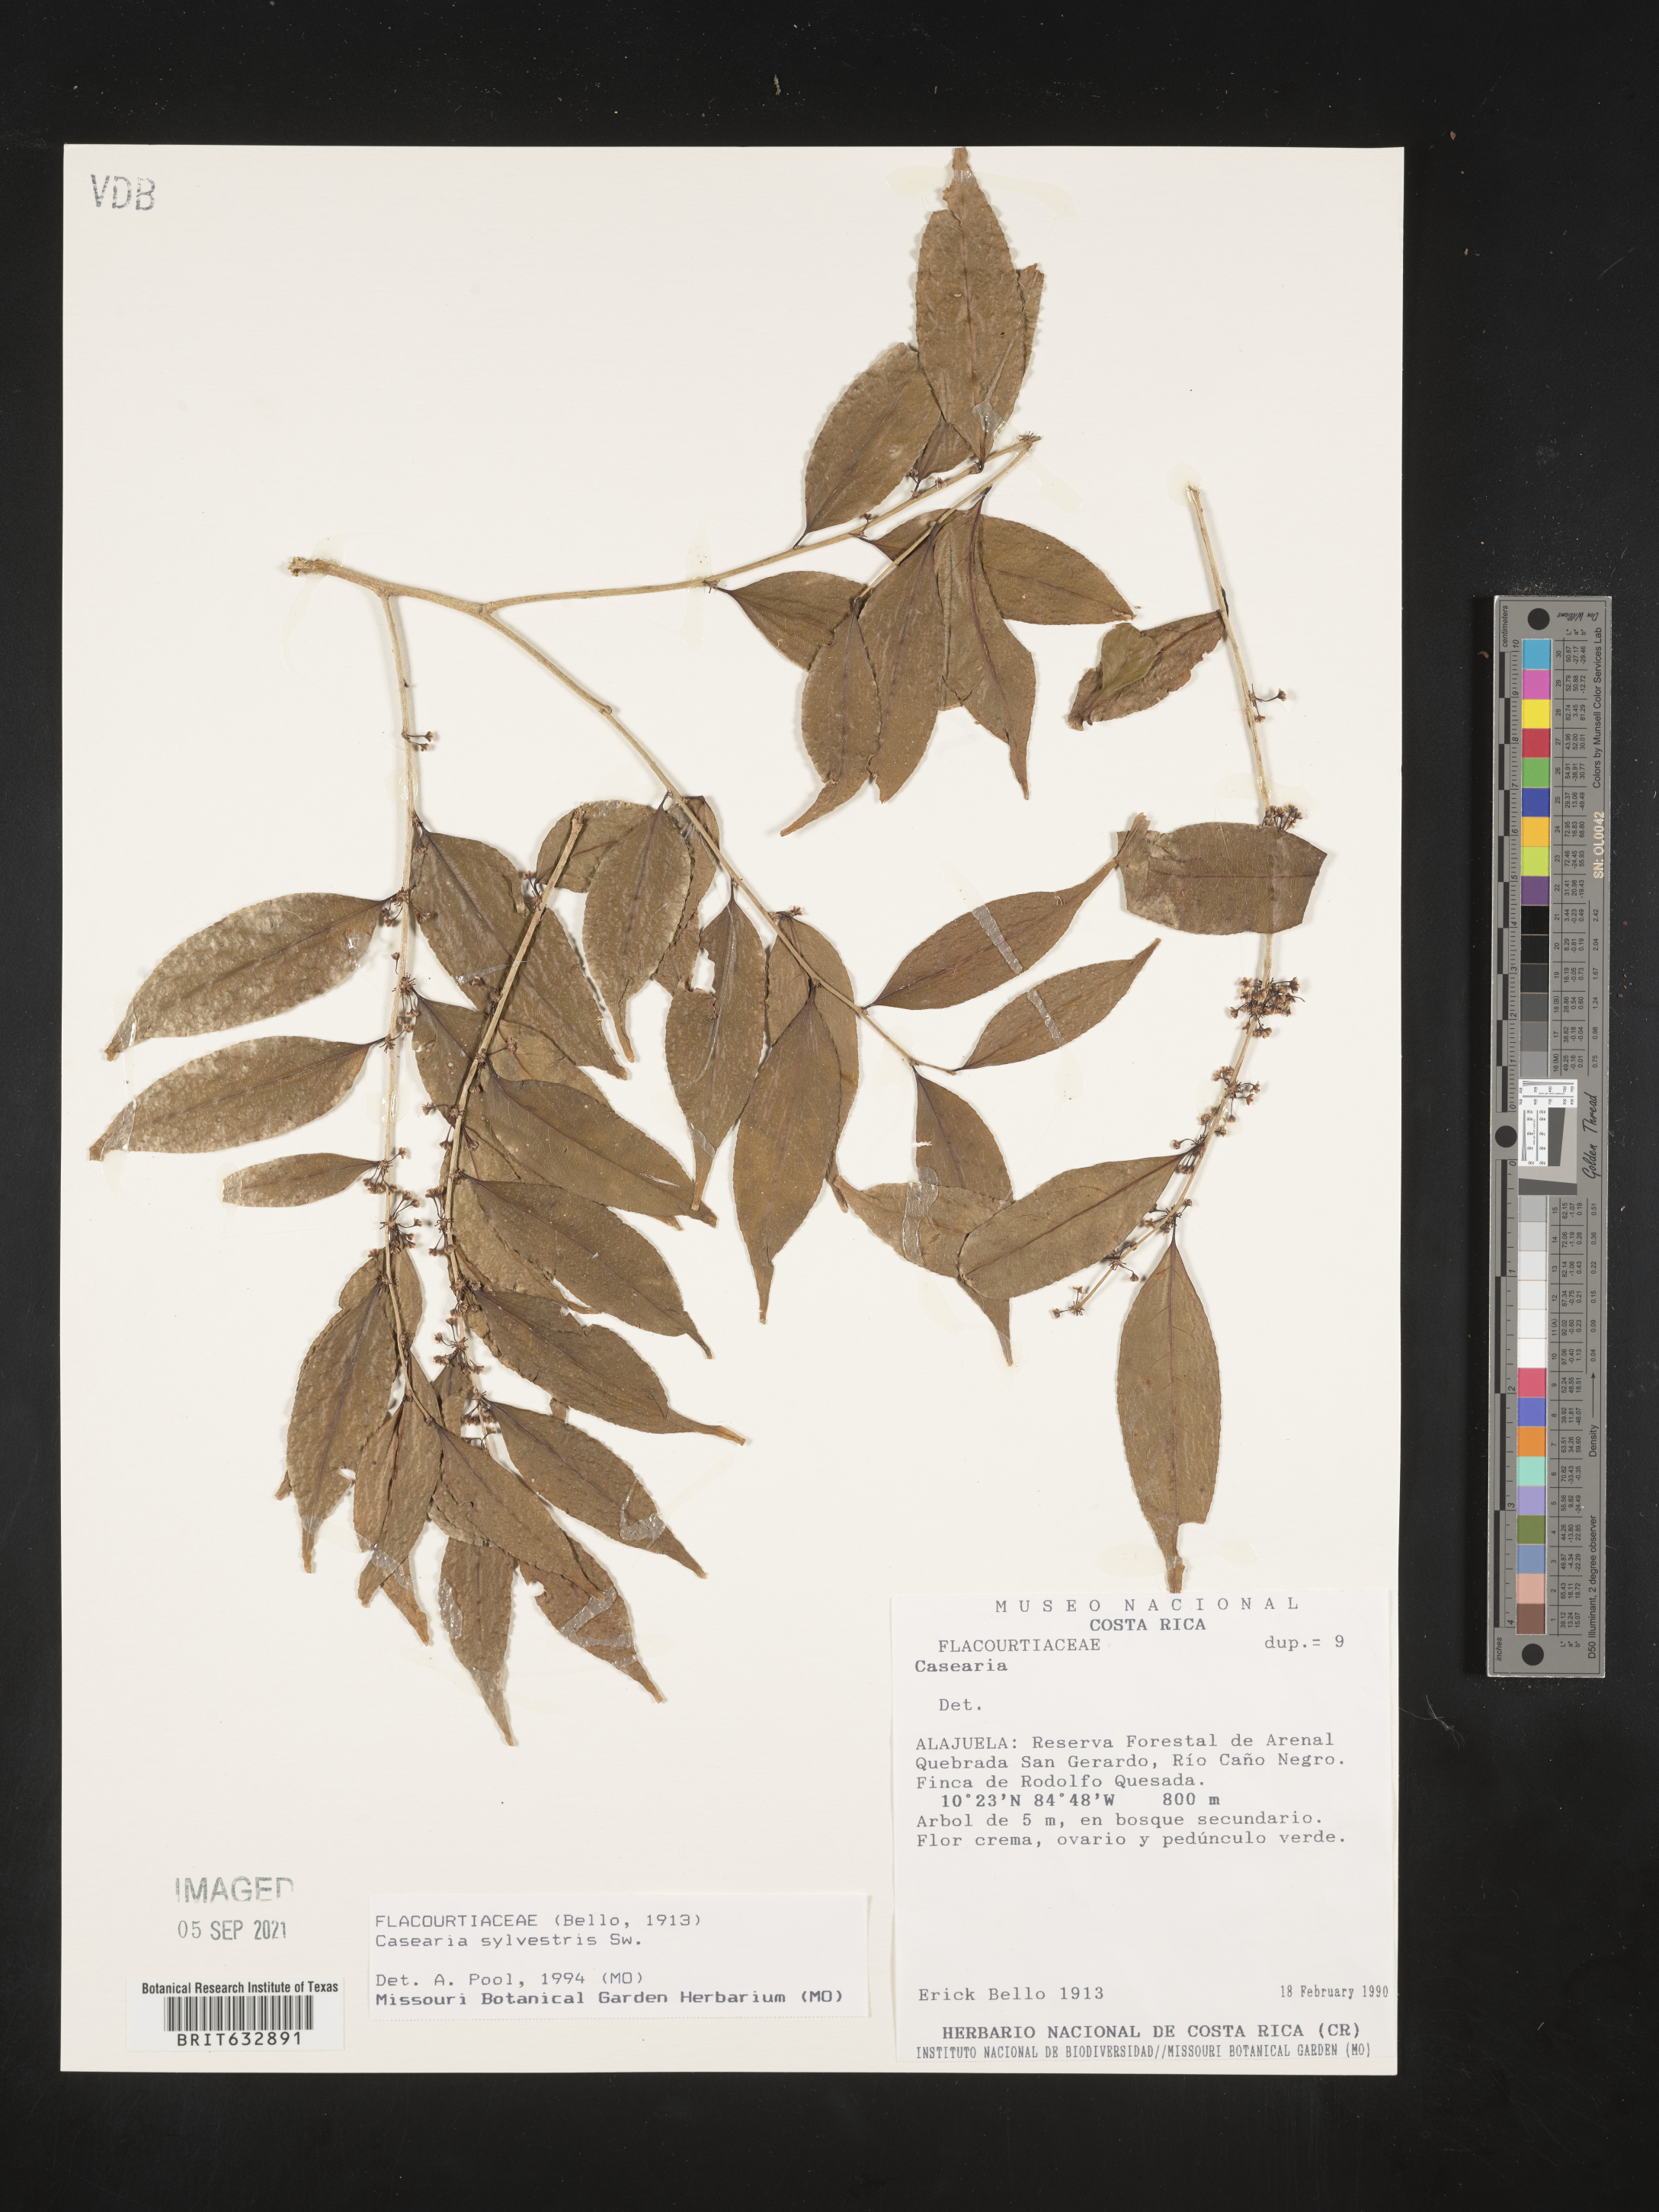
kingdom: Plantae
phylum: Tracheophyta
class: Magnoliopsida
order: Malpighiales
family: Salicaceae
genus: Casearia
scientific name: Casearia
